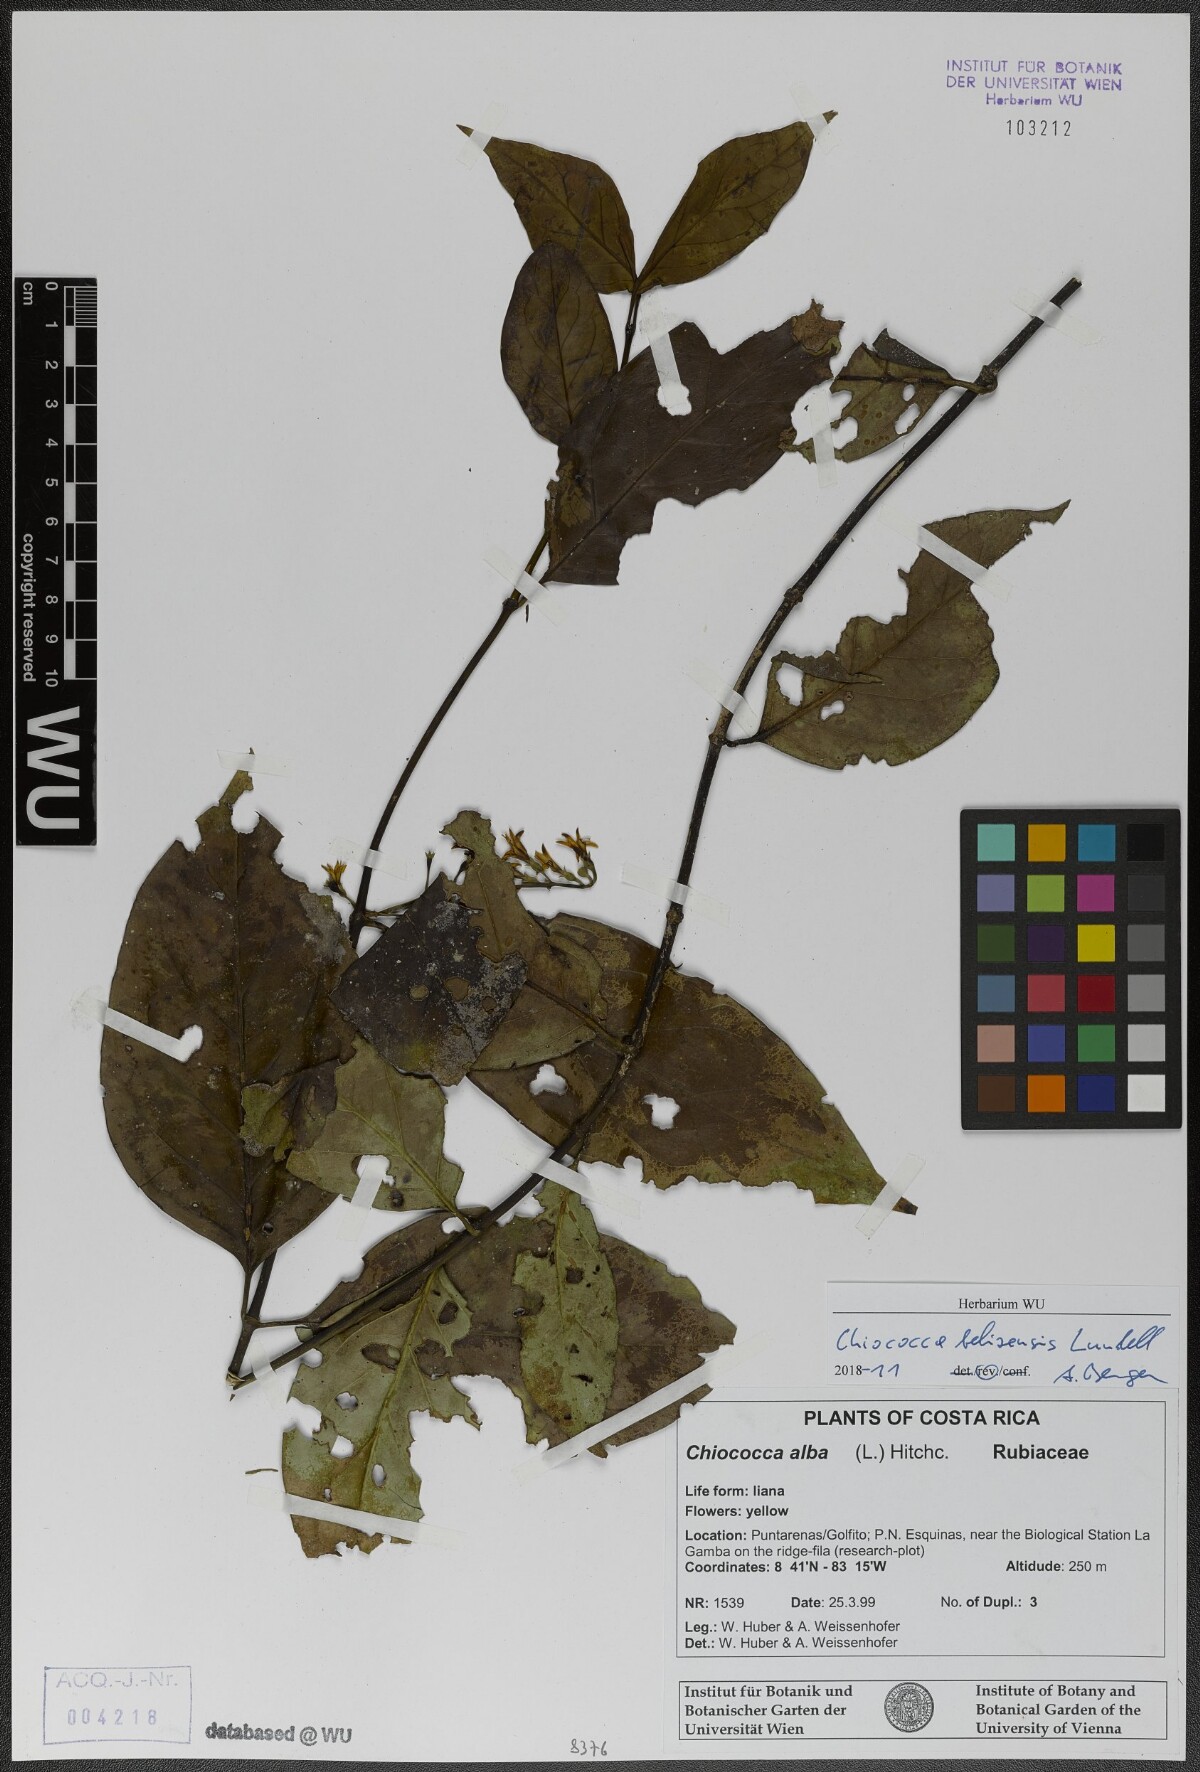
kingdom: Plantae
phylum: Tracheophyta
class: Magnoliopsida
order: Gentianales
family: Rubiaceae
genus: Chiococca
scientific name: Chiococca belizensis
